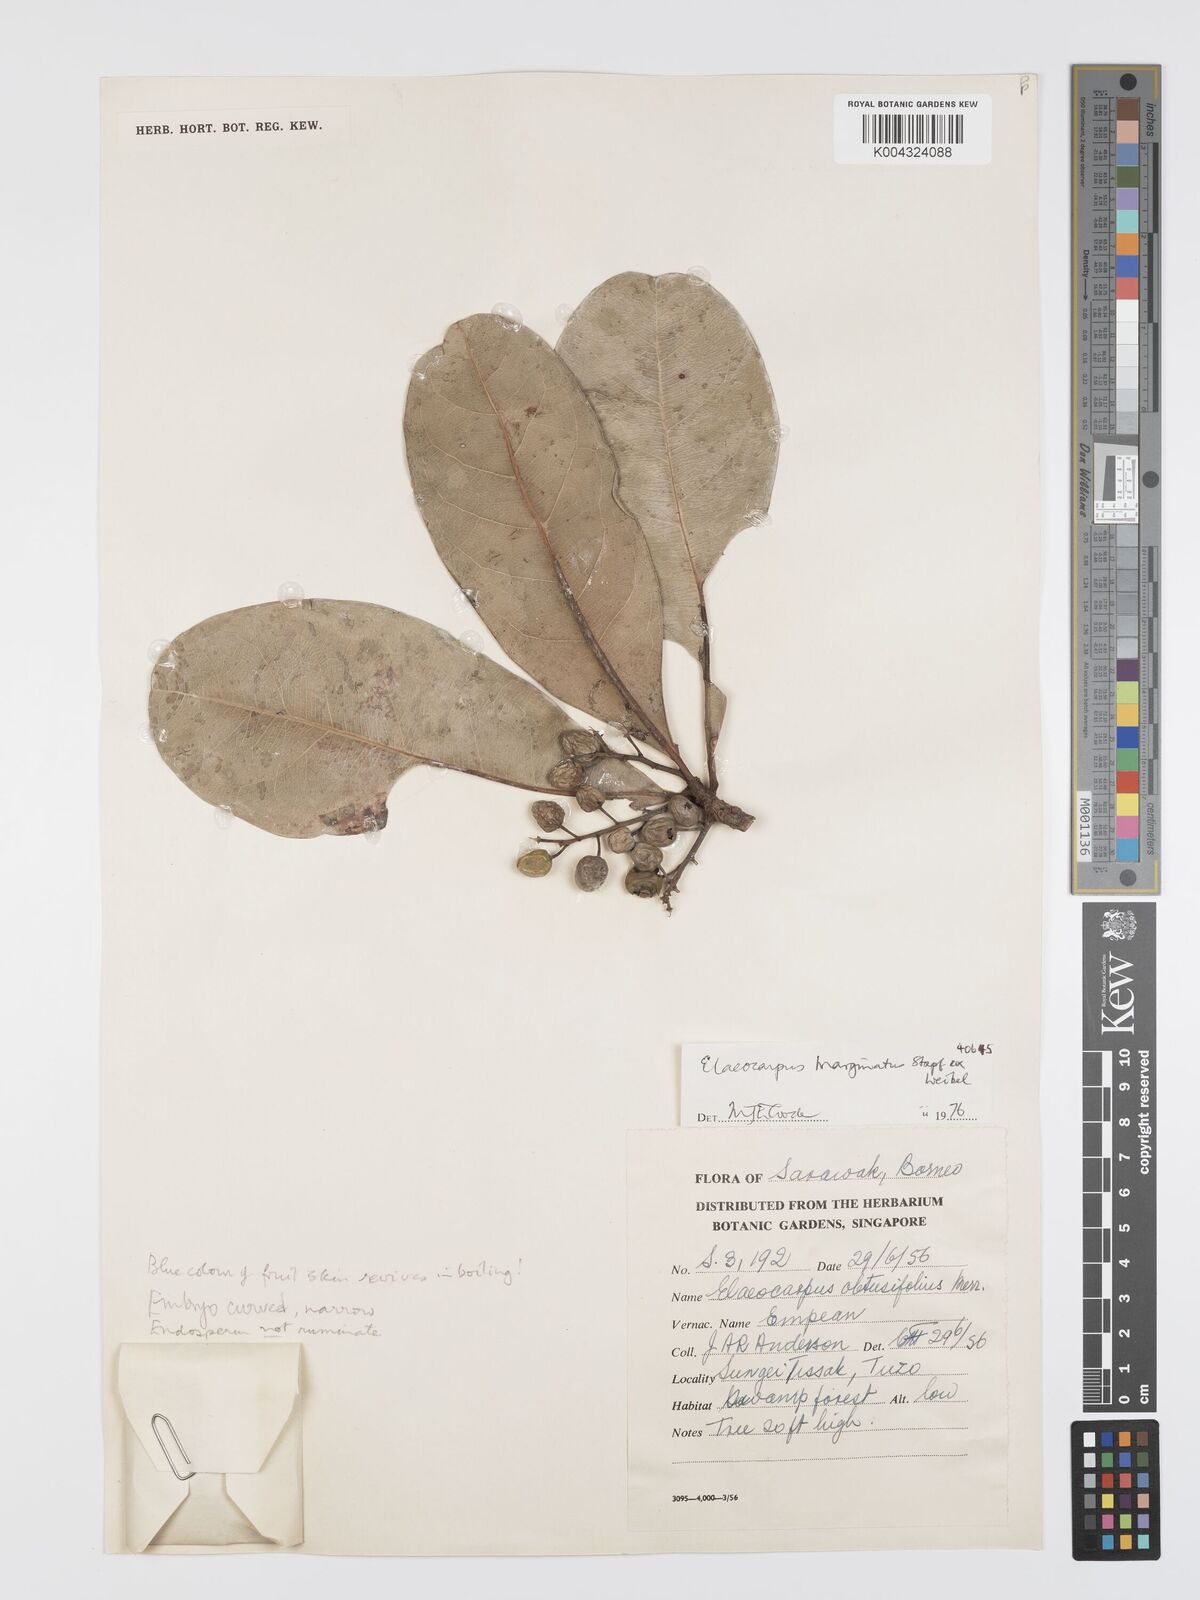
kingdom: Plantae
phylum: Tracheophyta
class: Magnoliopsida
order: Oxalidales
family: Elaeocarpaceae
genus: Elaeocarpus
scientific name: Elaeocarpus marginatus
